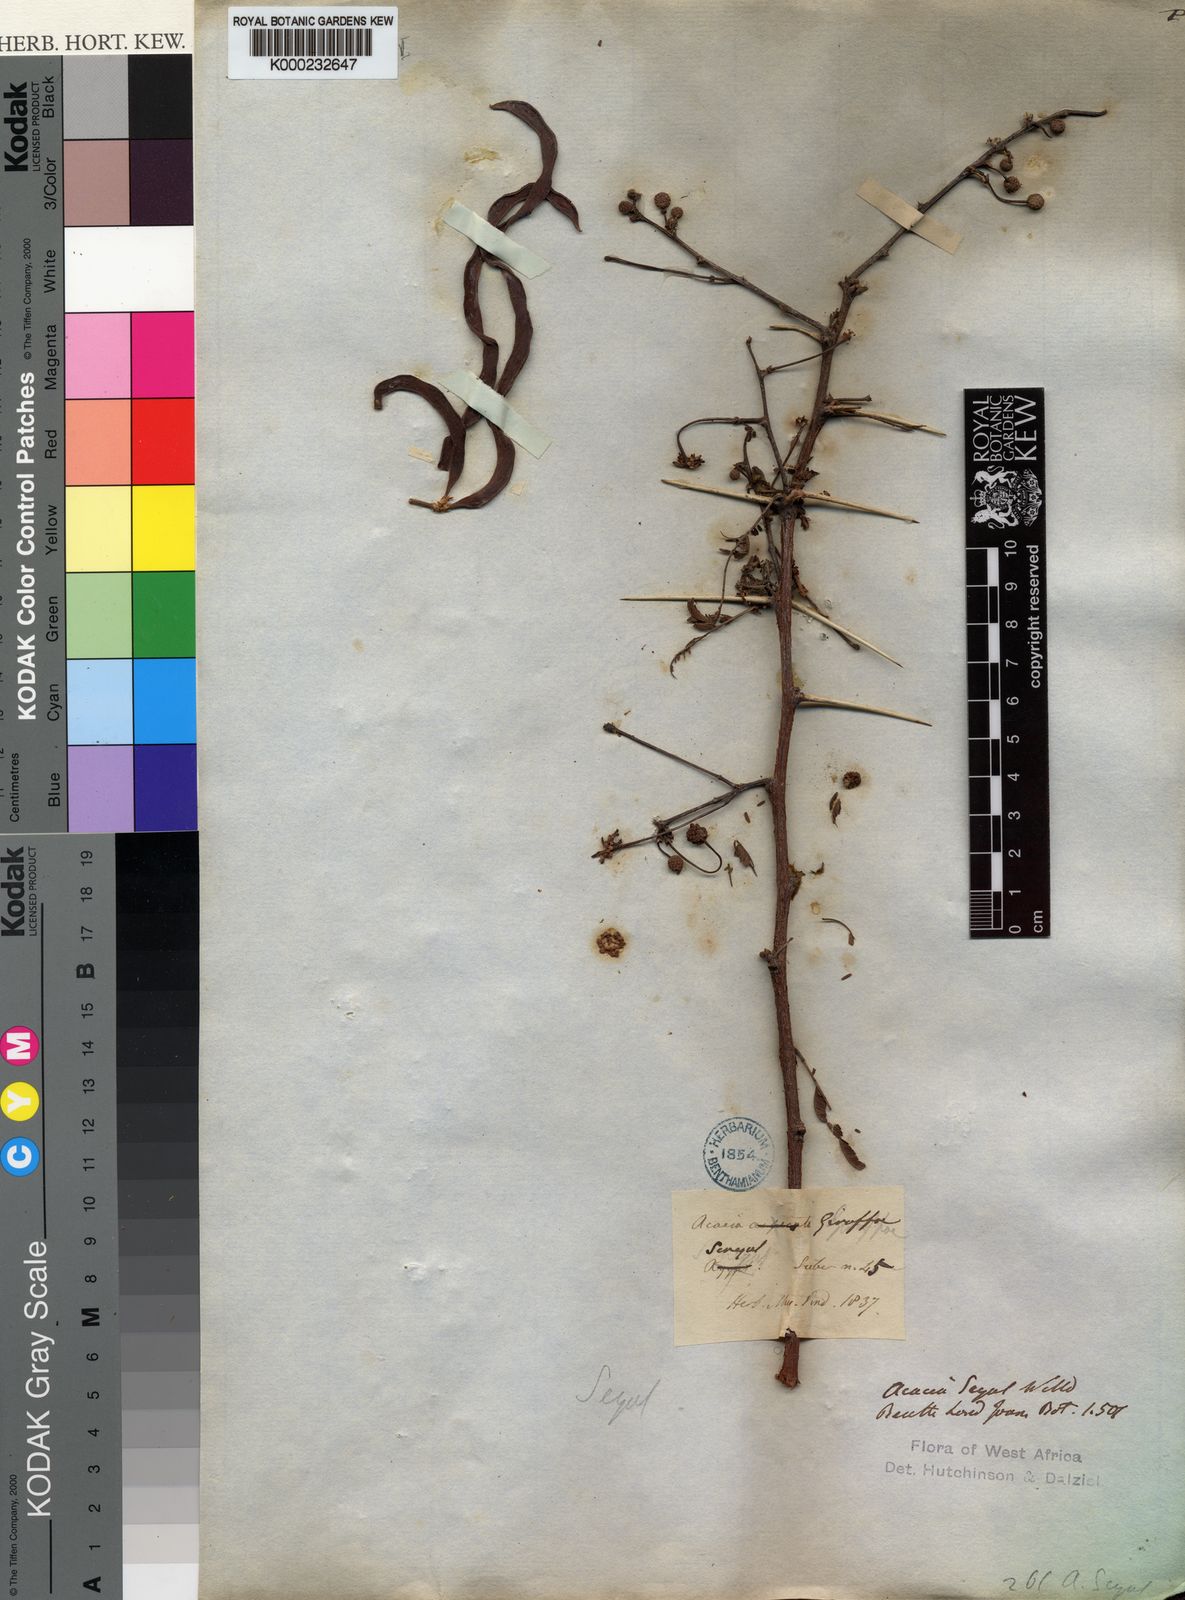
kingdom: Plantae
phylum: Tracheophyta
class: Magnoliopsida
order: Fabales
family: Fabaceae
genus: Faidherbia
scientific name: Faidherbia albida
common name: Anatree
